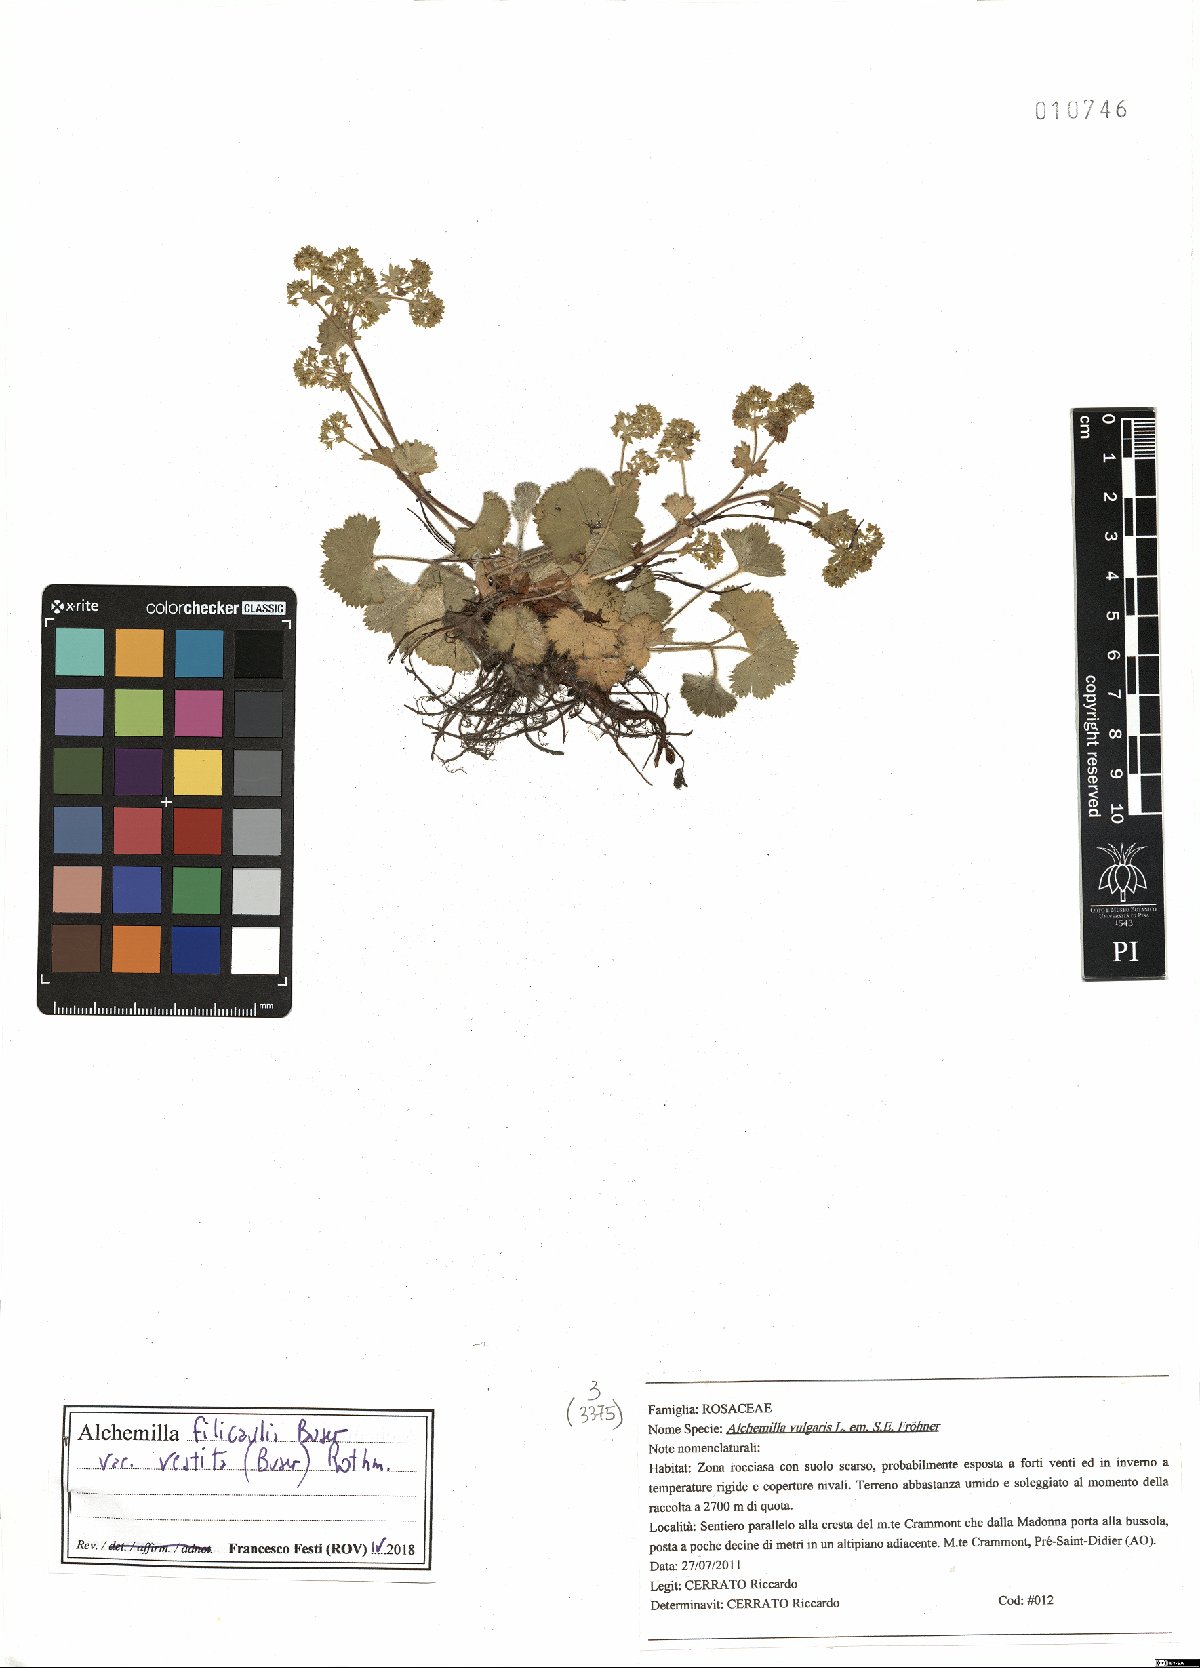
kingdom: Plantae
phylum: Tracheophyta
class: Magnoliopsida
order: Rosales
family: Rosaceae
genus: Alchemilla
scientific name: Alchemilla filicaulis
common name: Hairy lady's-mantle
